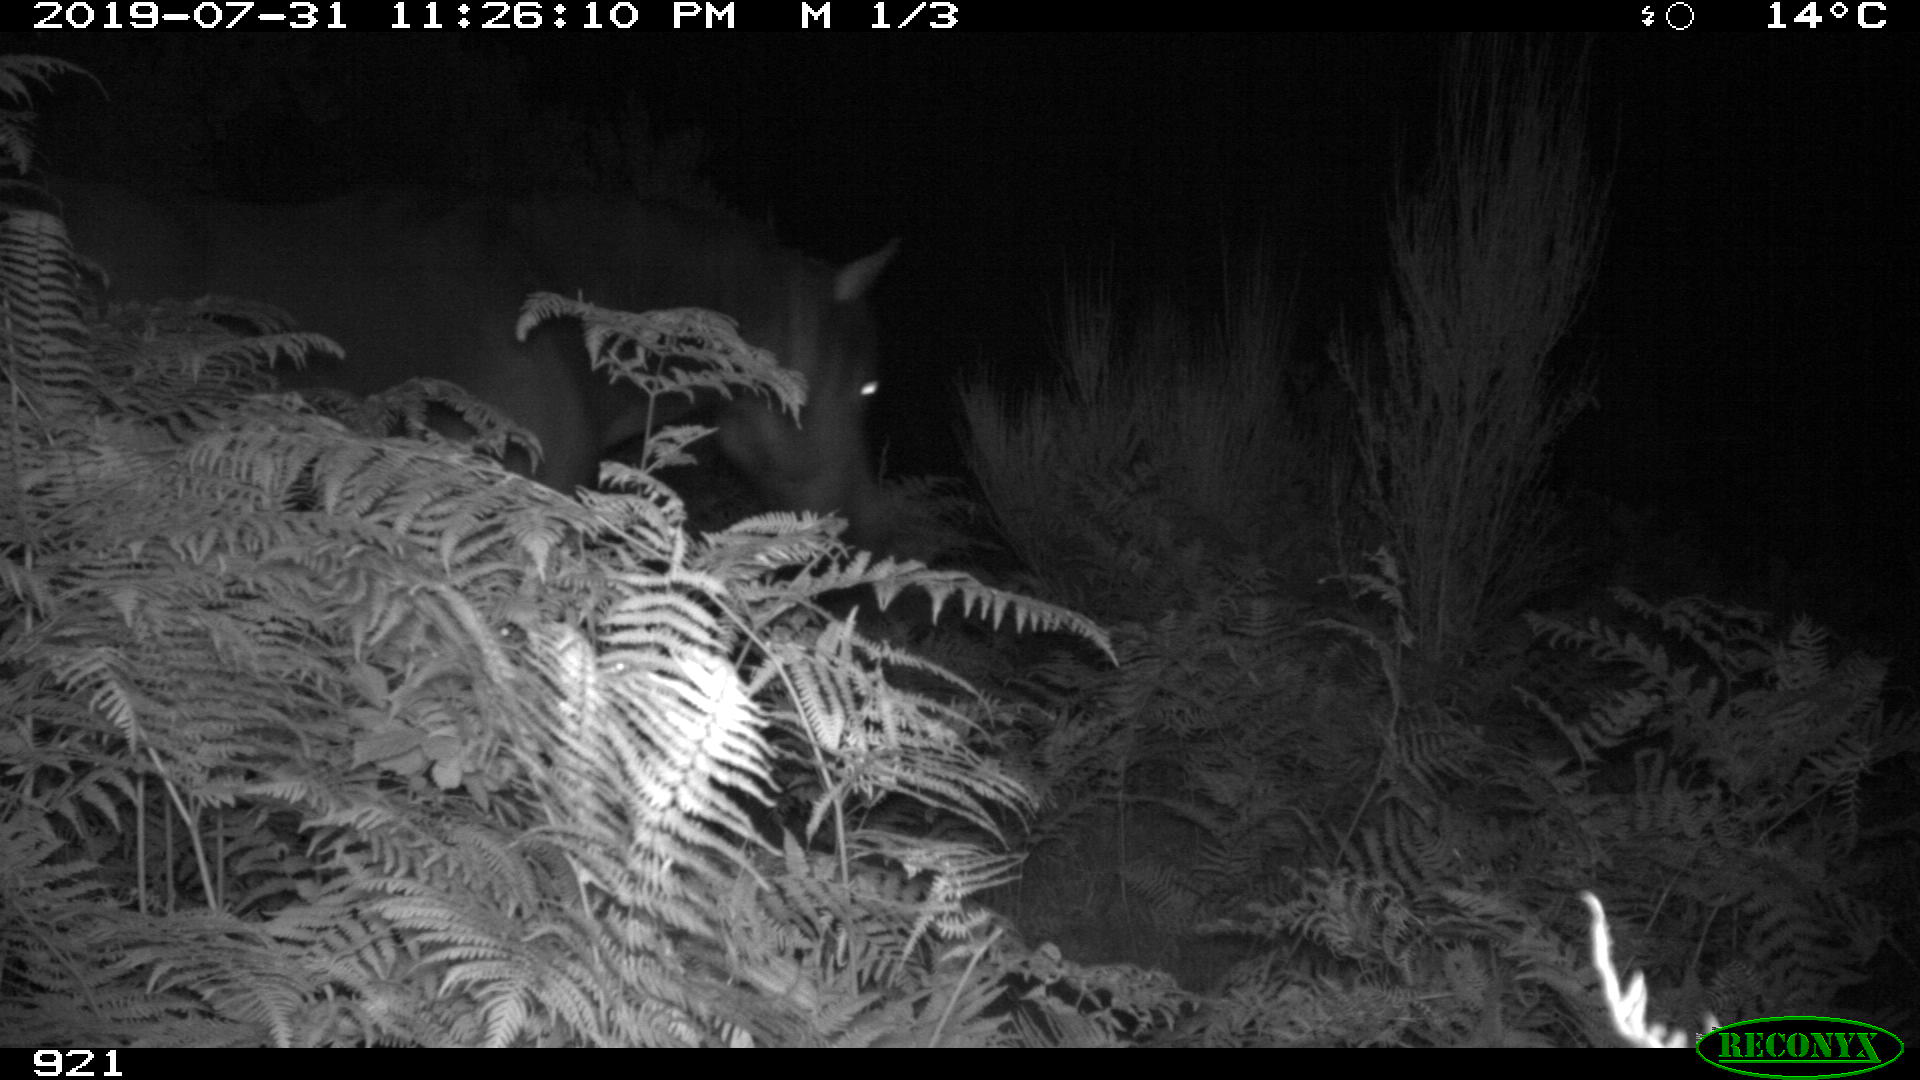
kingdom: Animalia
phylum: Chordata
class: Mammalia
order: Perissodactyla
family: Equidae
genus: Equus
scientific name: Equus caballus
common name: Horse
